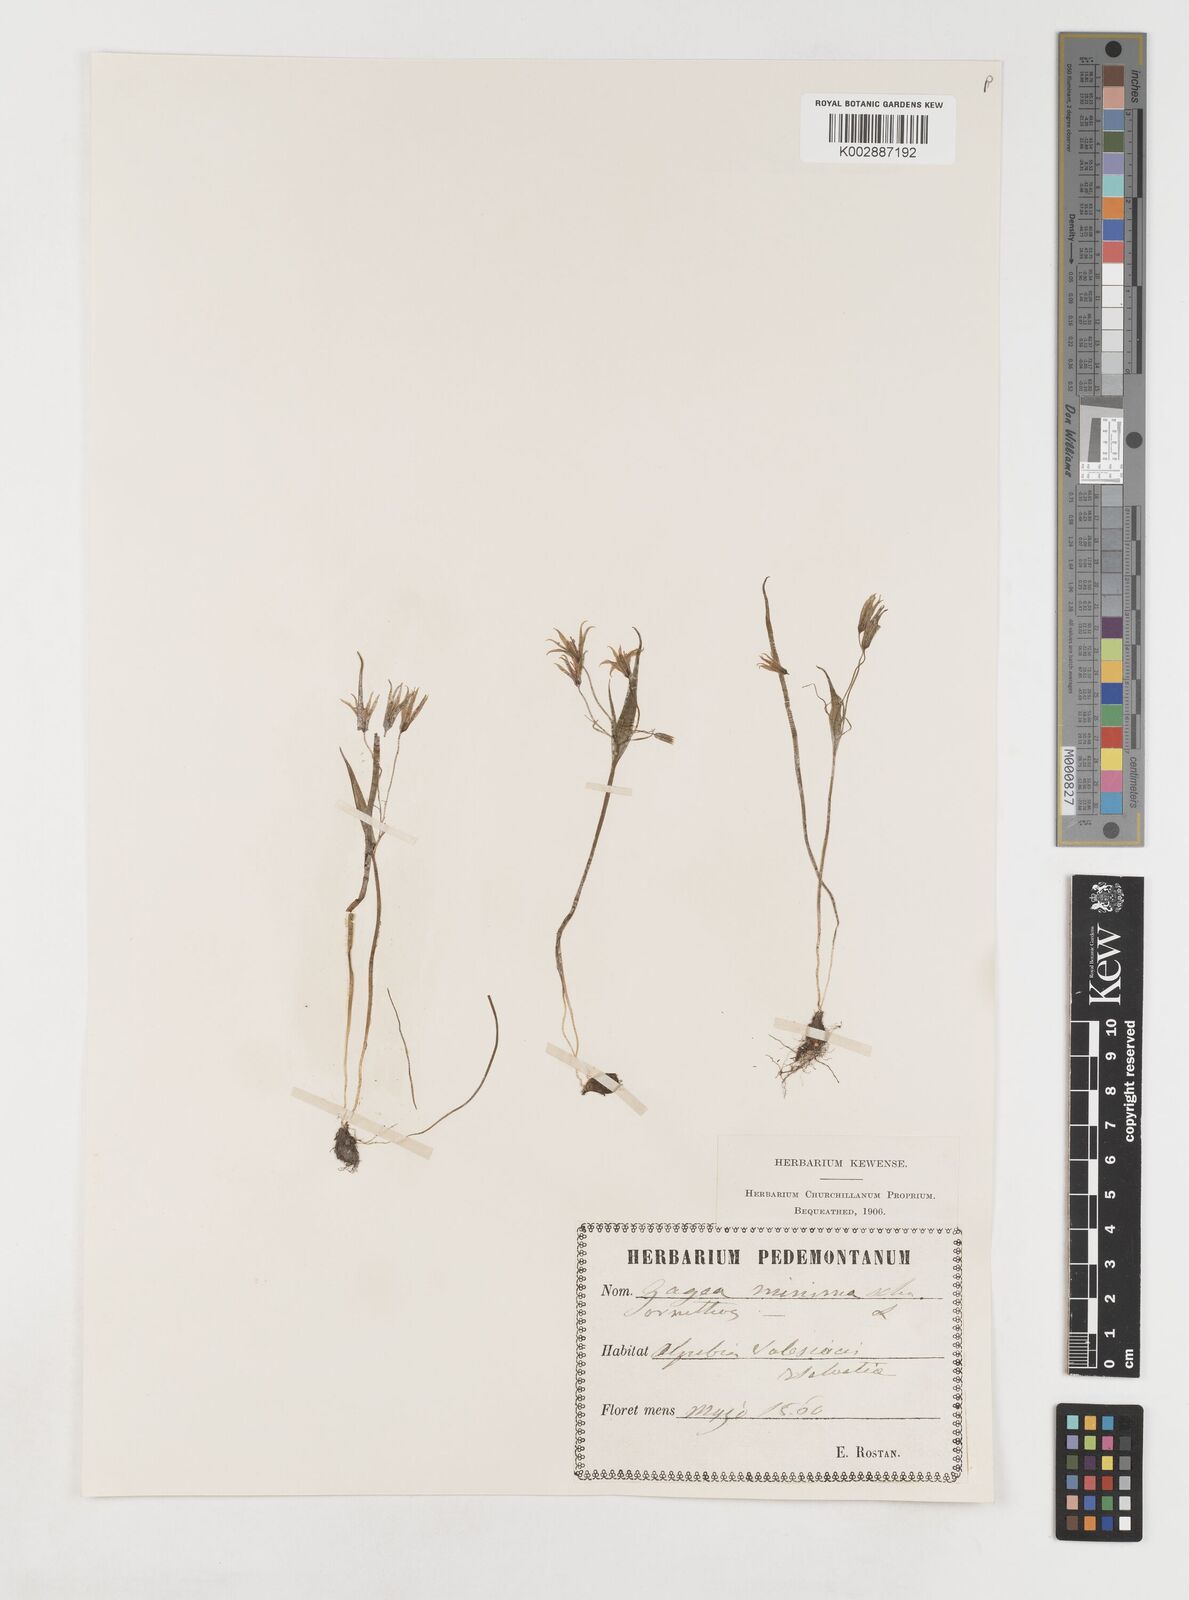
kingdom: Plantae
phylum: Tracheophyta
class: Liliopsida
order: Liliales
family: Liliaceae
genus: Gagea
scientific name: Gagea minima
